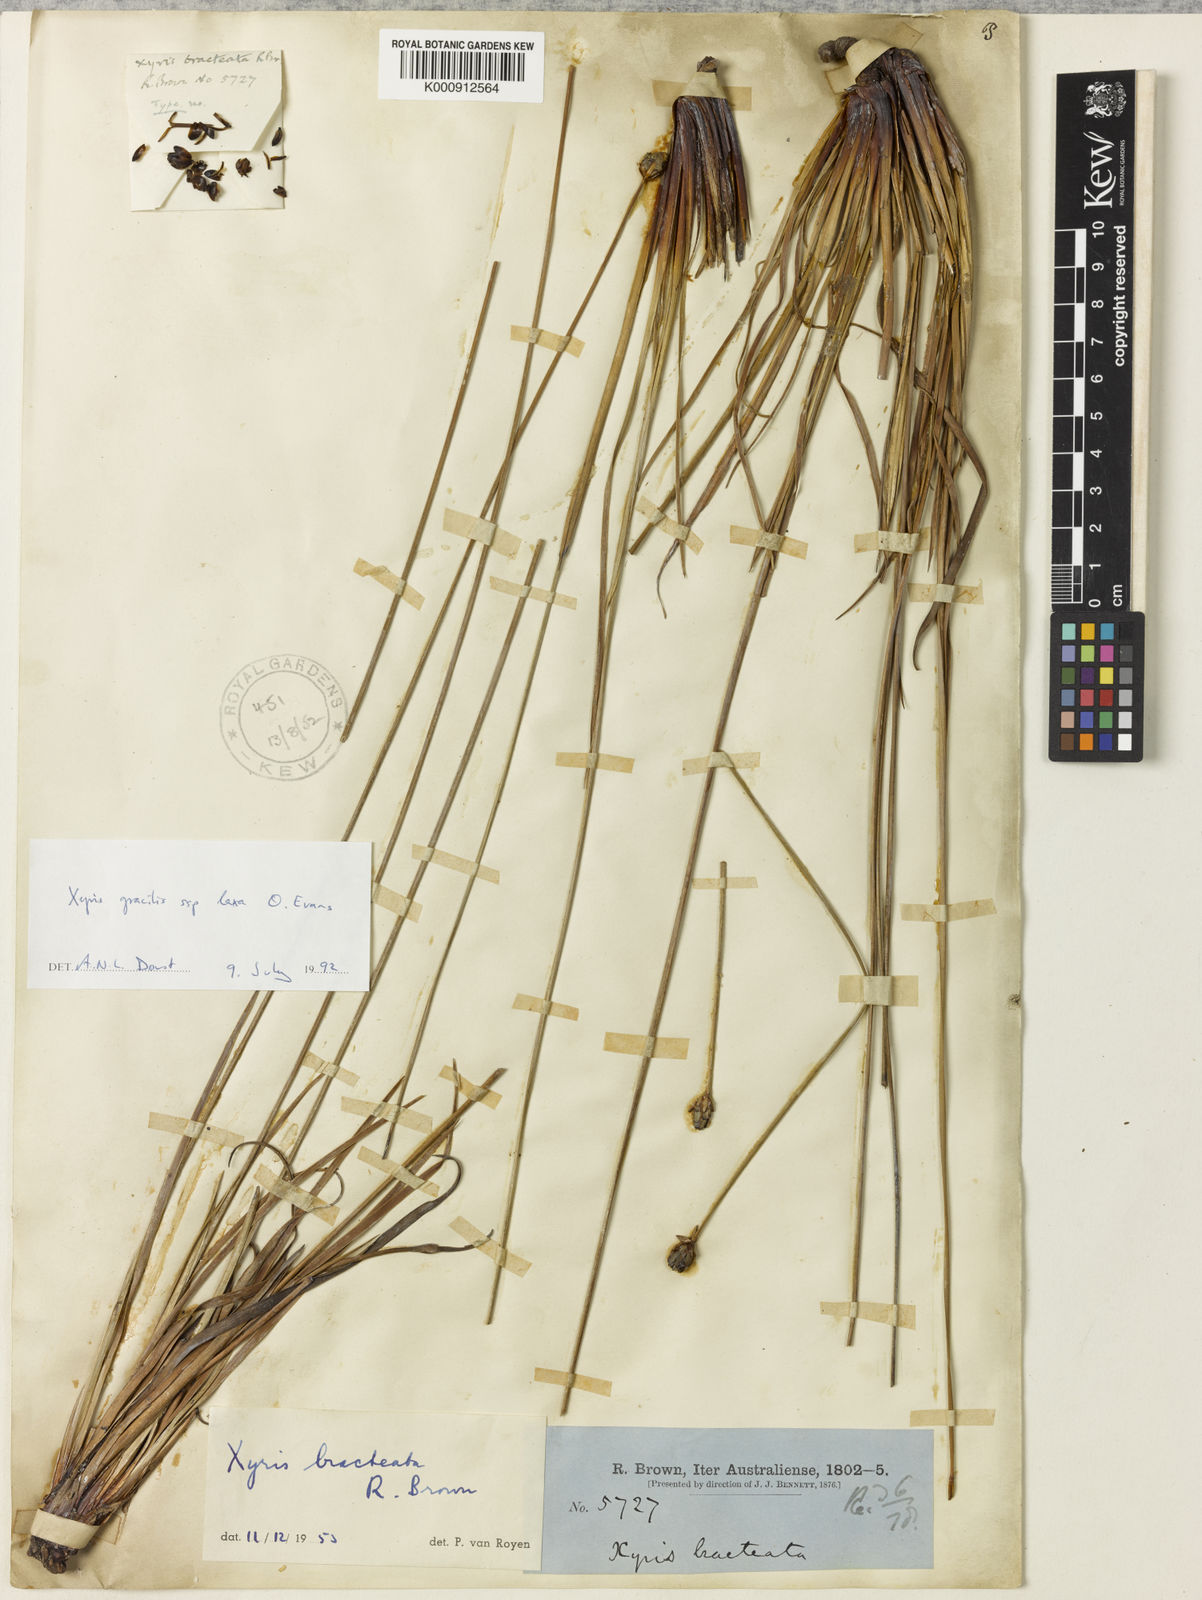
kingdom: Plantae
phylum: Tracheophyta
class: Liliopsida
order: Poales
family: Xyridaceae
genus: Xyris
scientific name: Xyris bracteata
